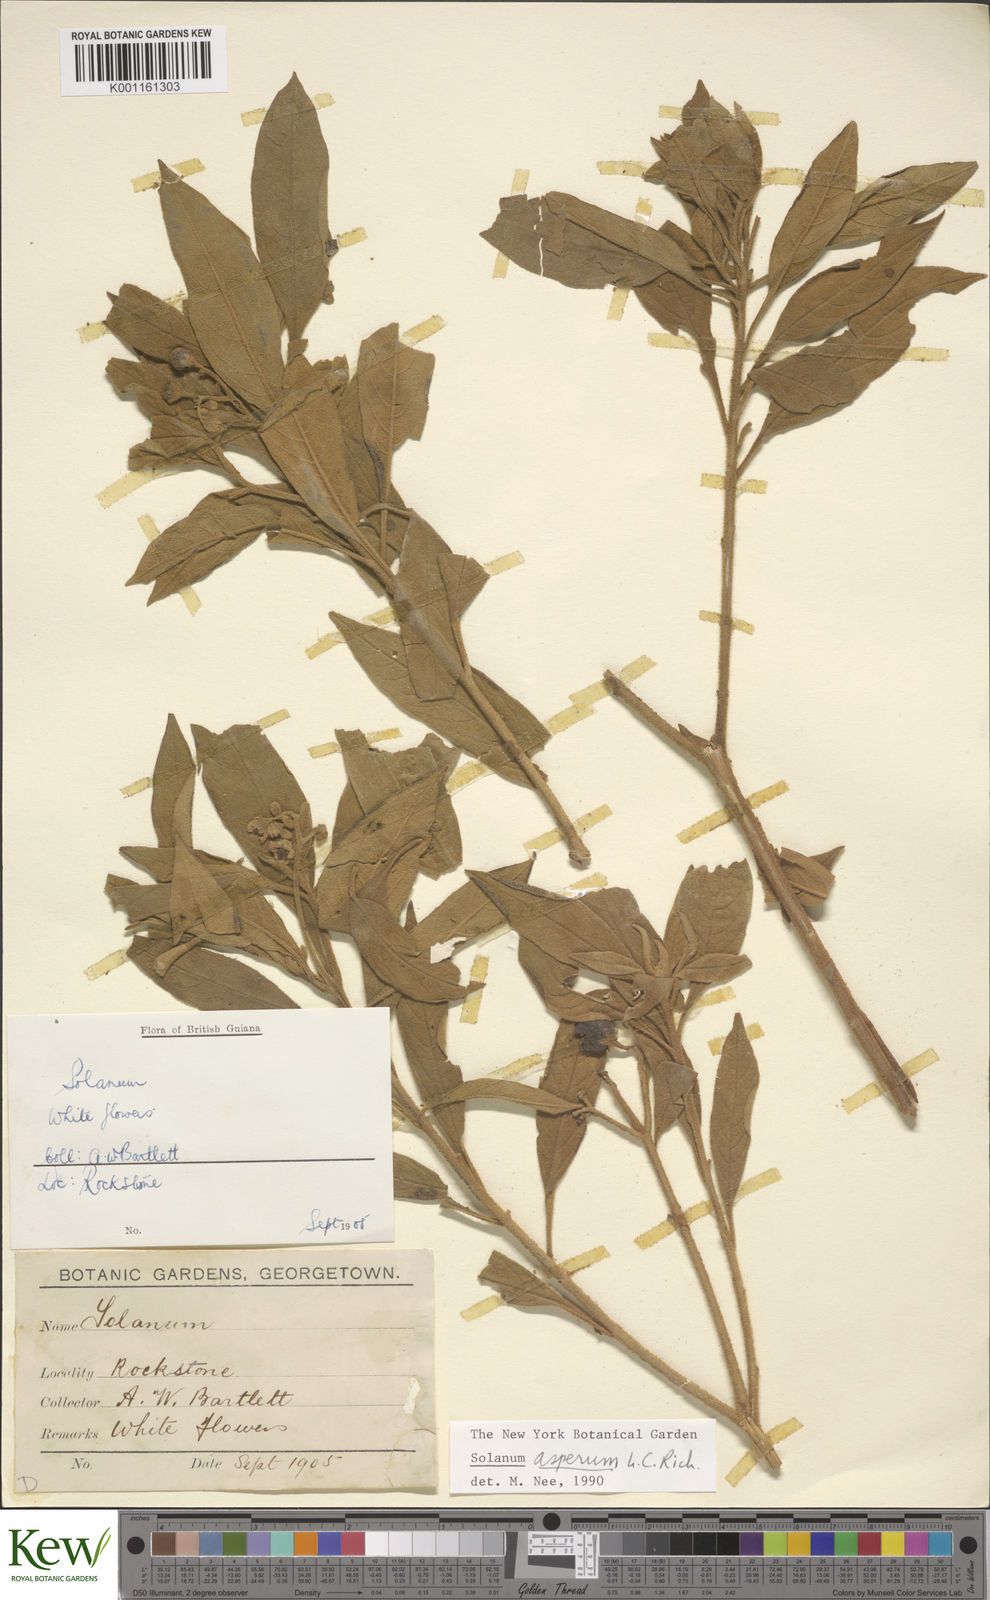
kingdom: Plantae
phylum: Tracheophyta
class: Magnoliopsida
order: Solanales
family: Solanaceae
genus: Solanum
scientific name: Solanum asperum
